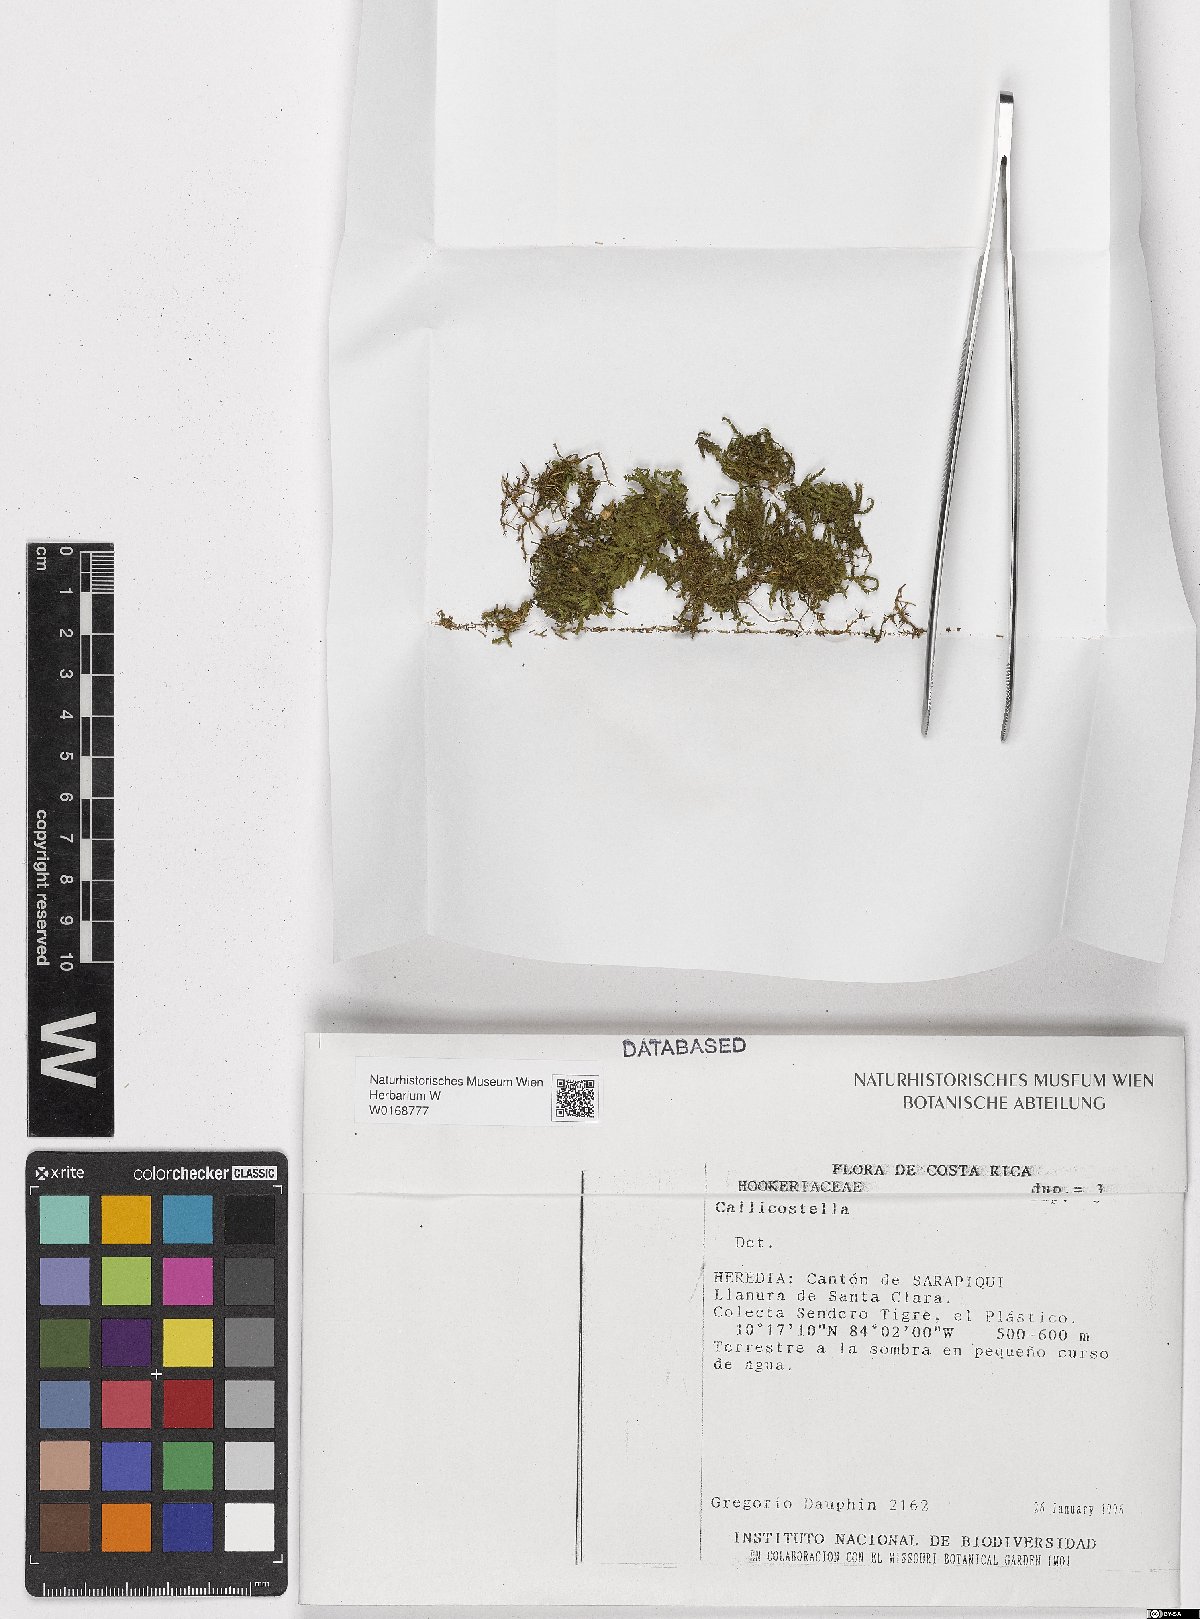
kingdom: Plantae
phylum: Bryophyta
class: Bryopsida
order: Hookeriales
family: Pilotrichaceae
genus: Callicostella
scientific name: Callicostella
